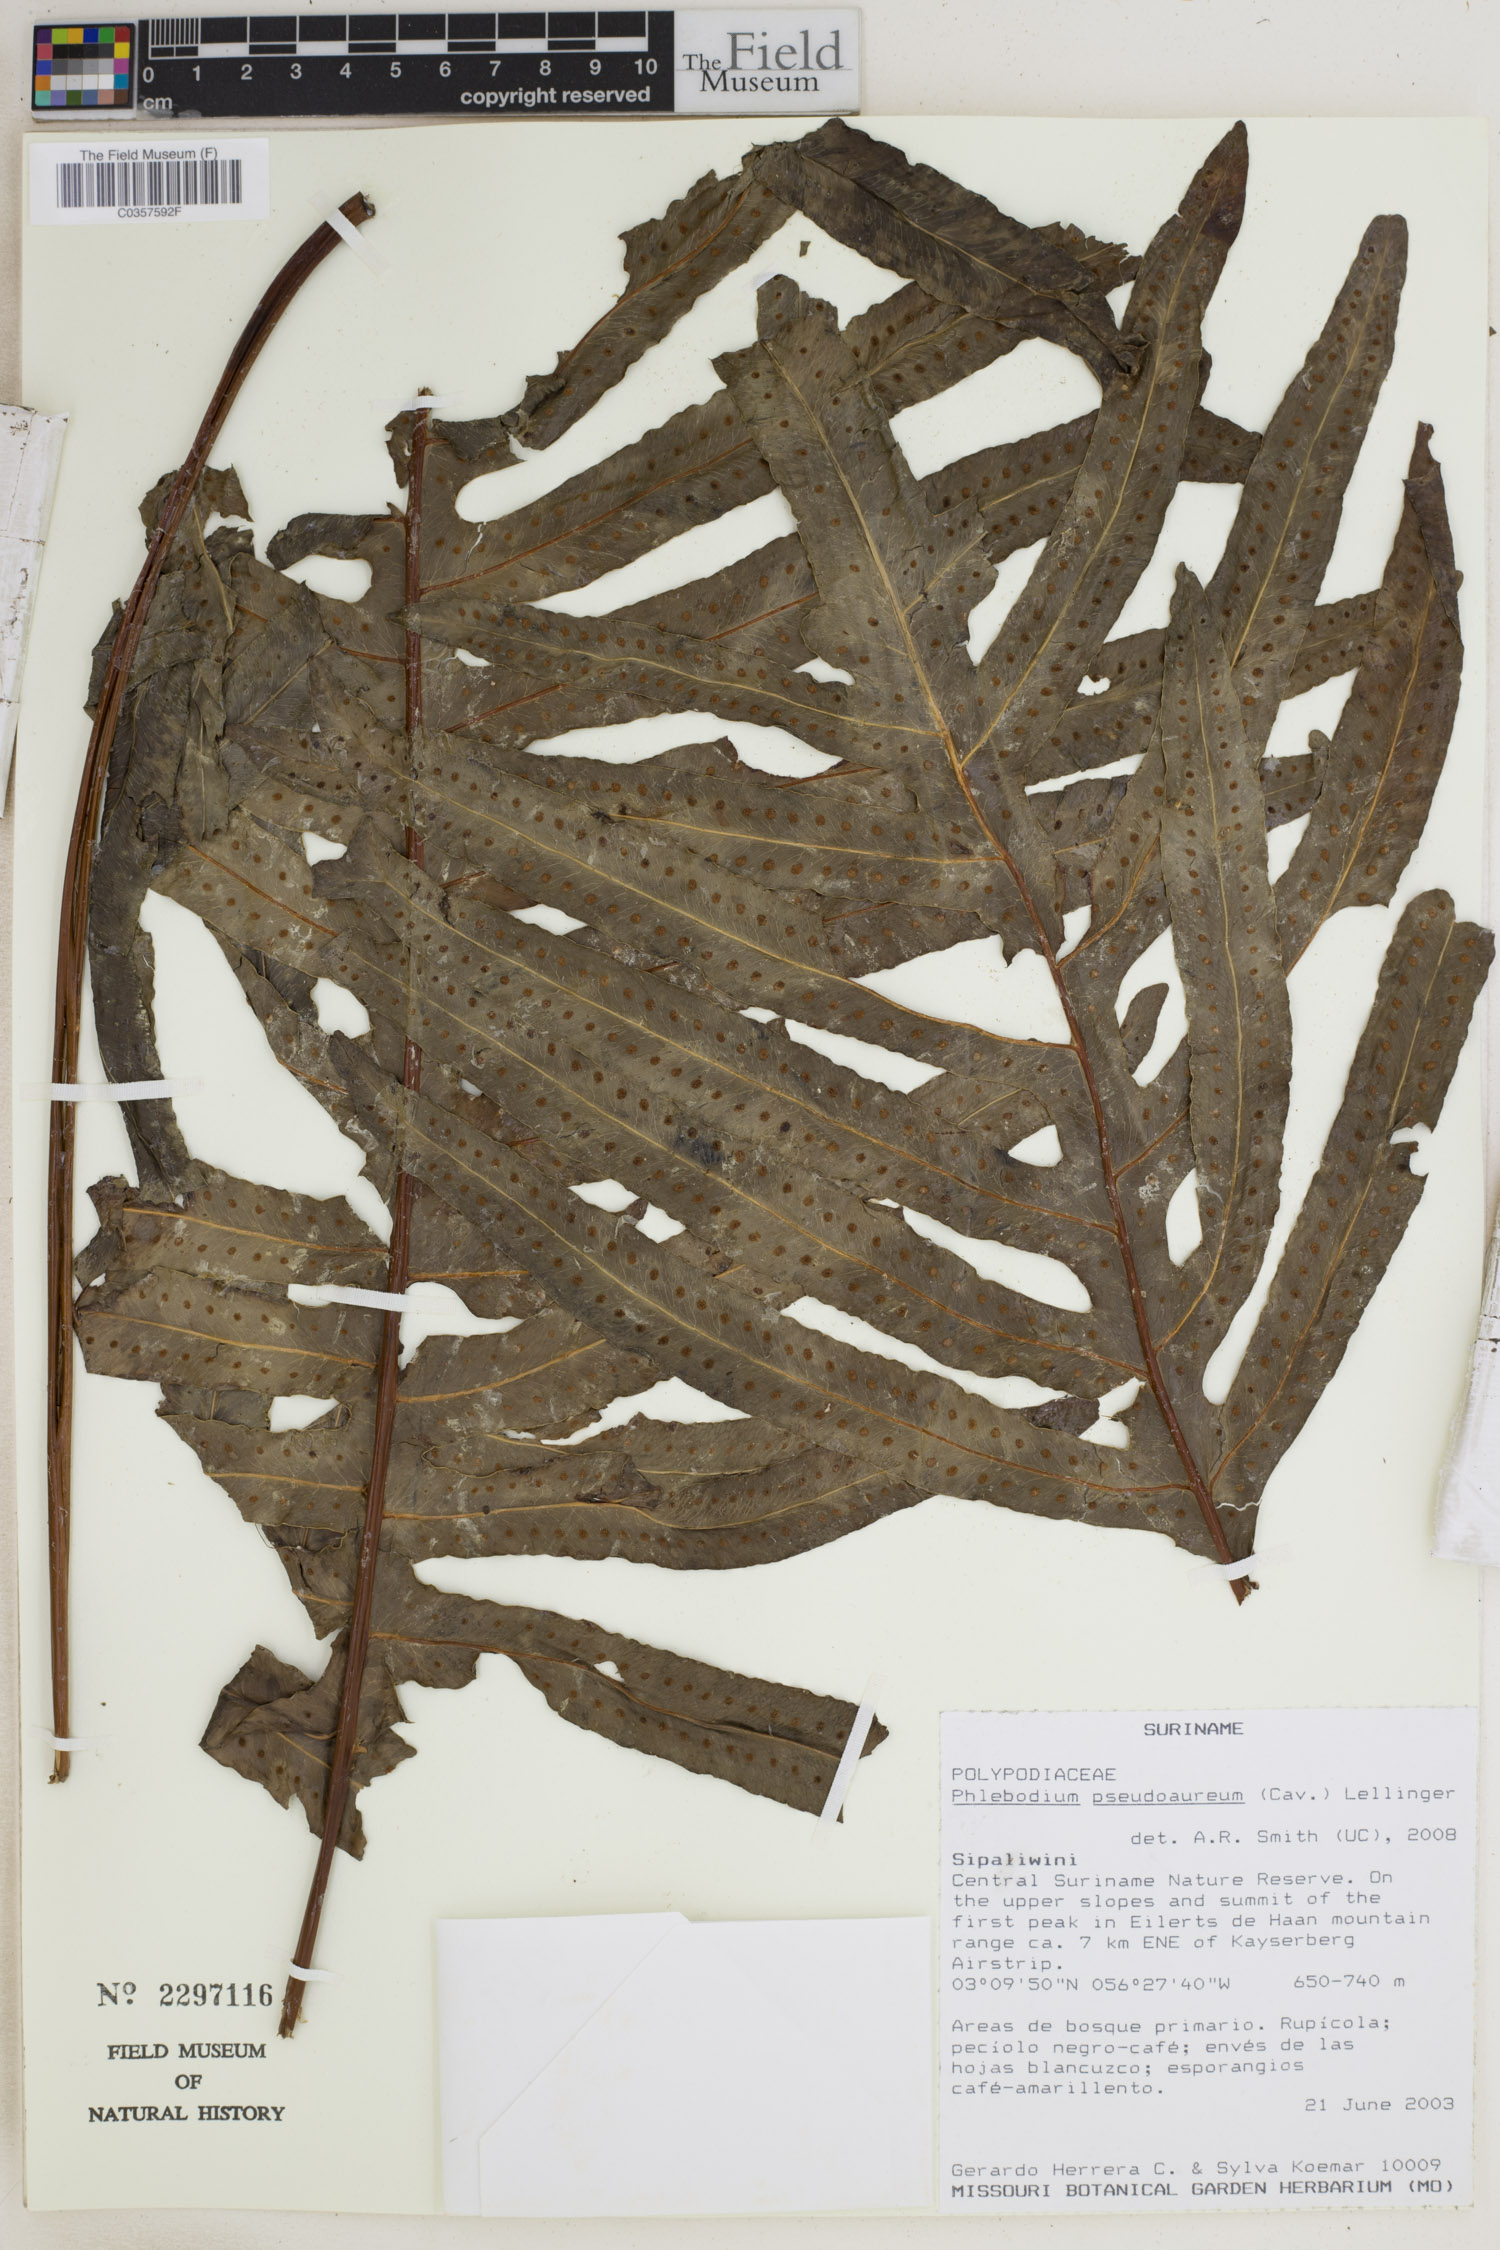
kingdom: Plantae
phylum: Tracheophyta
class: Polypodiopsida
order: Polypodiales
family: Polypodiaceae
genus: Phlebodium
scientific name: Phlebodium pseudoaureum
